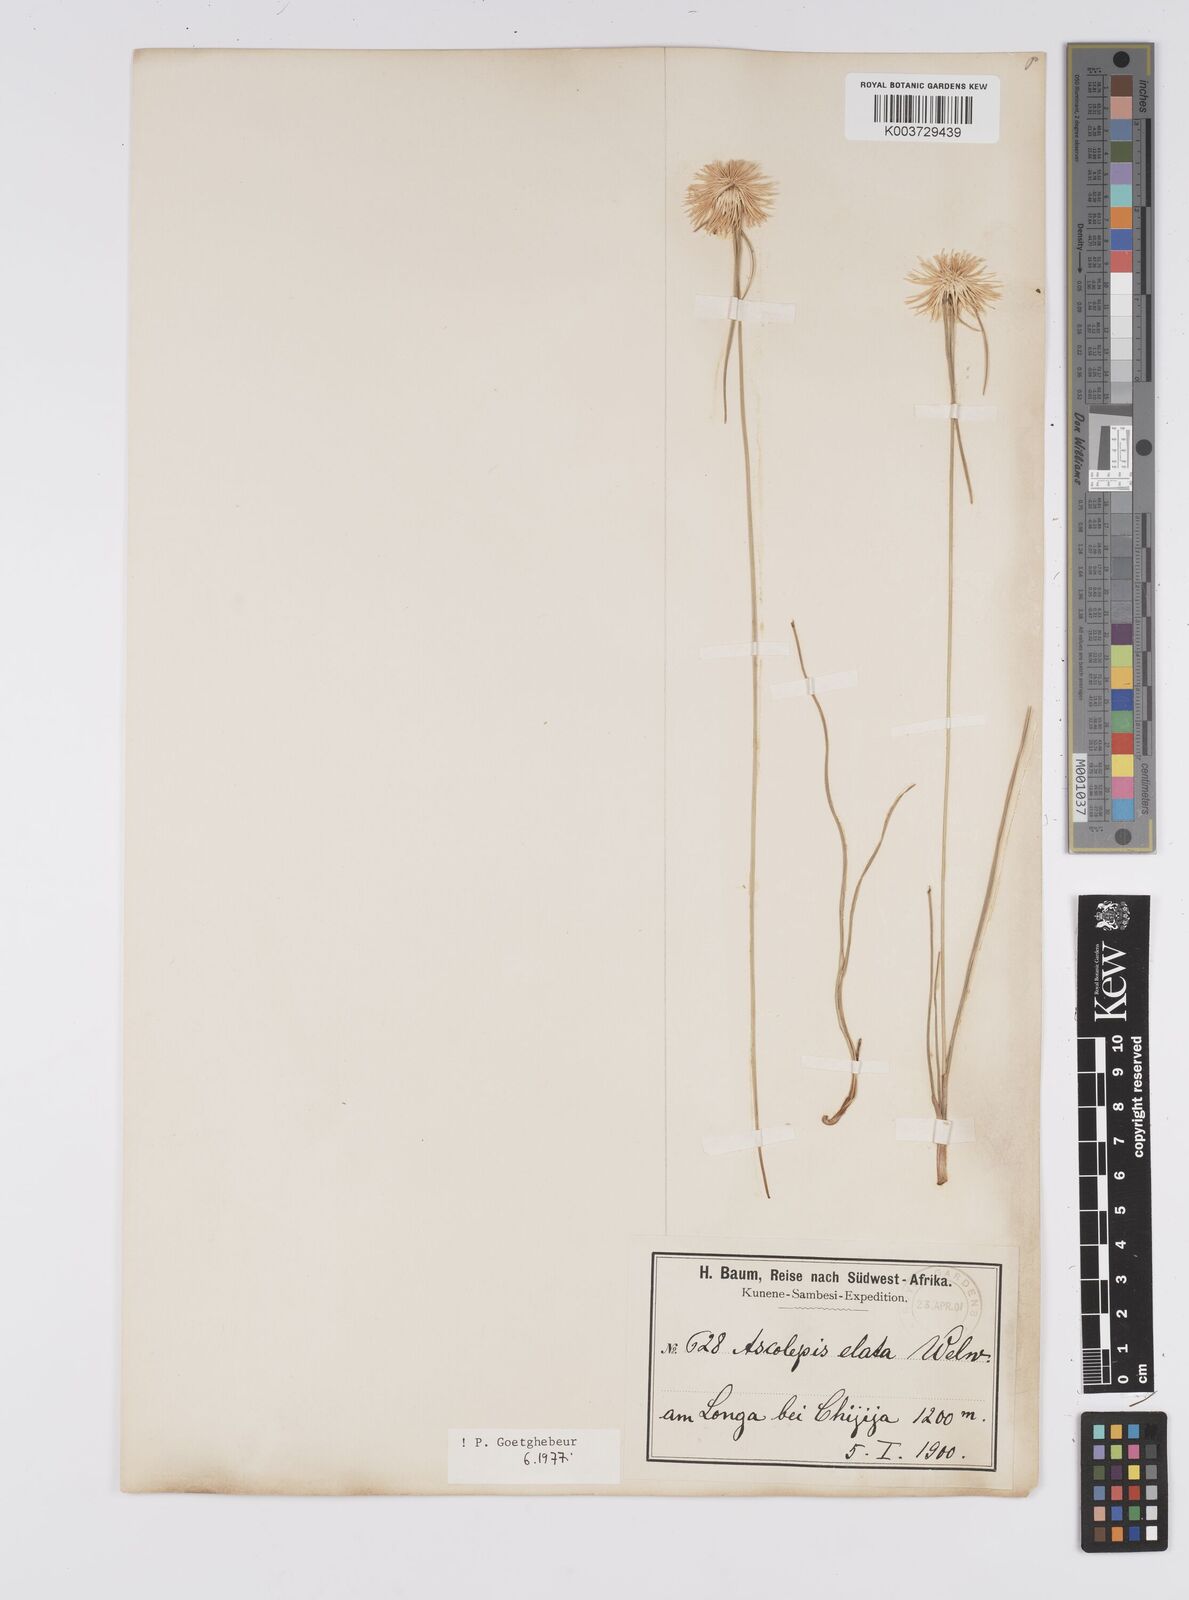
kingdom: Plantae
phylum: Tracheophyta
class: Liliopsida
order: Poales
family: Cyperaceae
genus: Cyperus
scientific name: Cyperus
